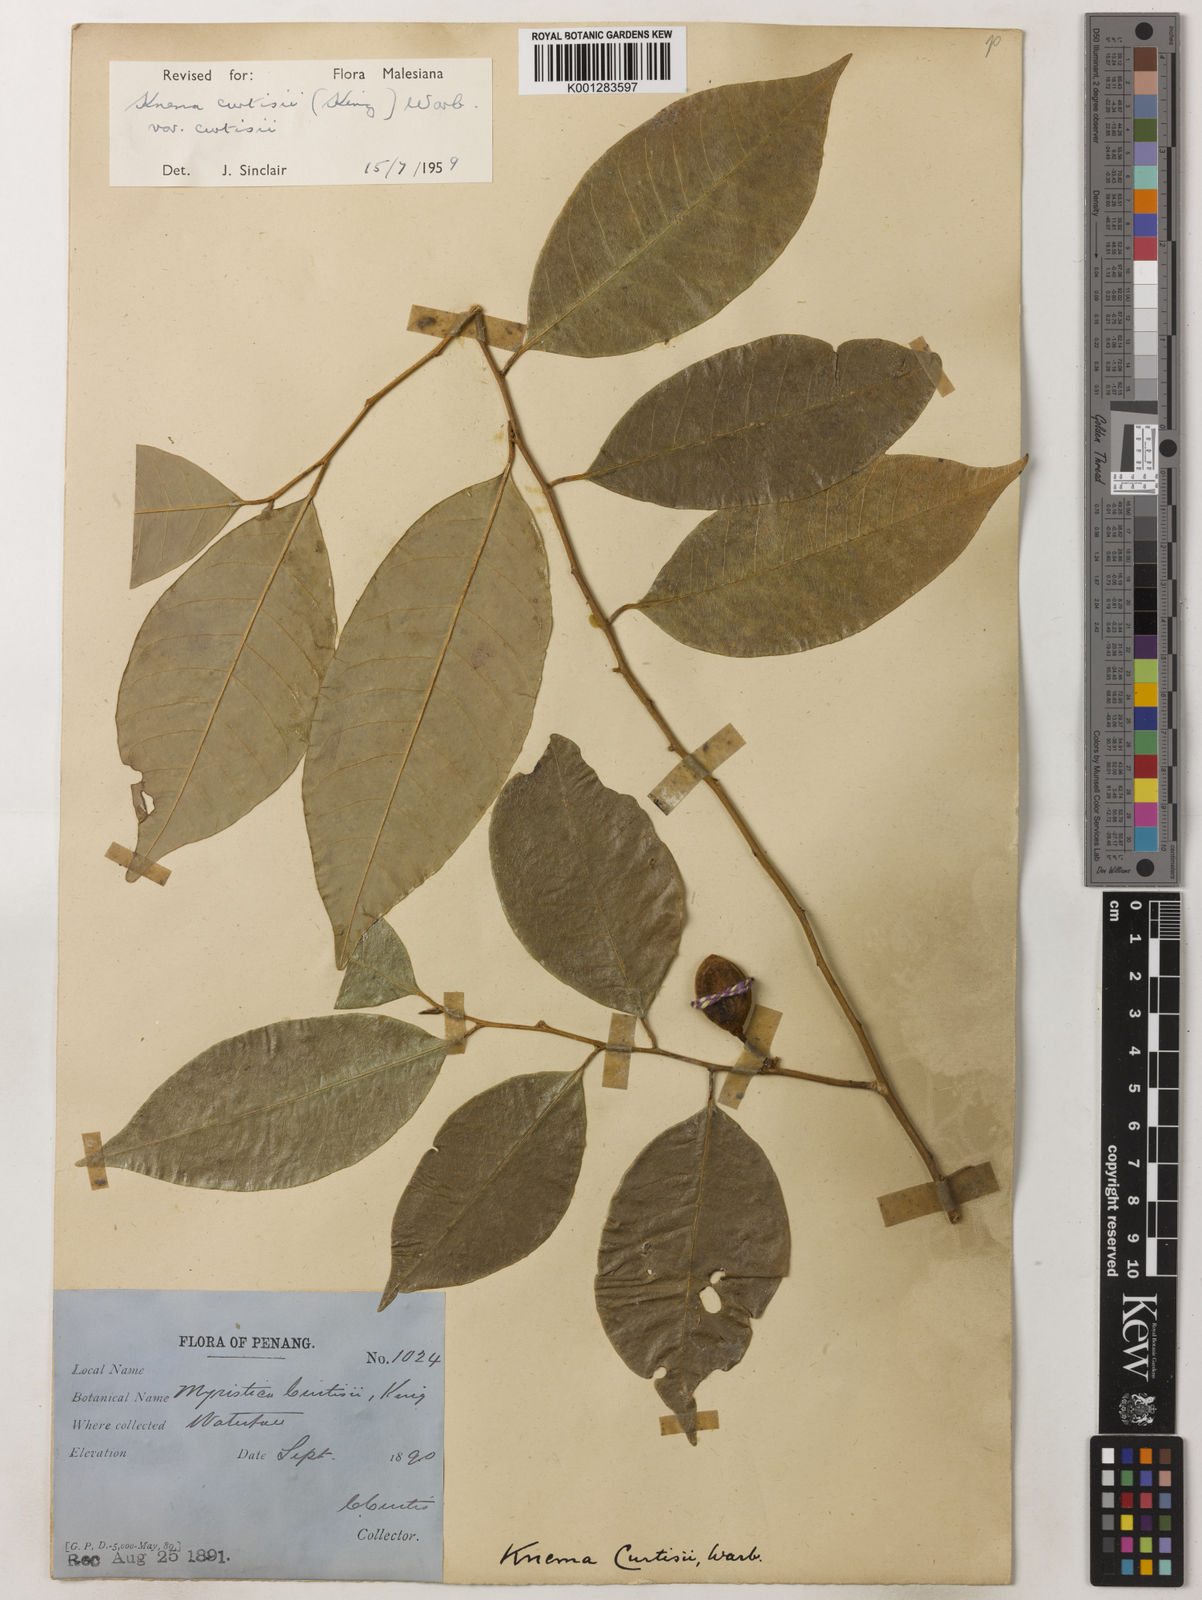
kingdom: Plantae
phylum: Tracheophyta
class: Magnoliopsida
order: Magnoliales
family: Myristicaceae
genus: Knema
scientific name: Knema curtisii
